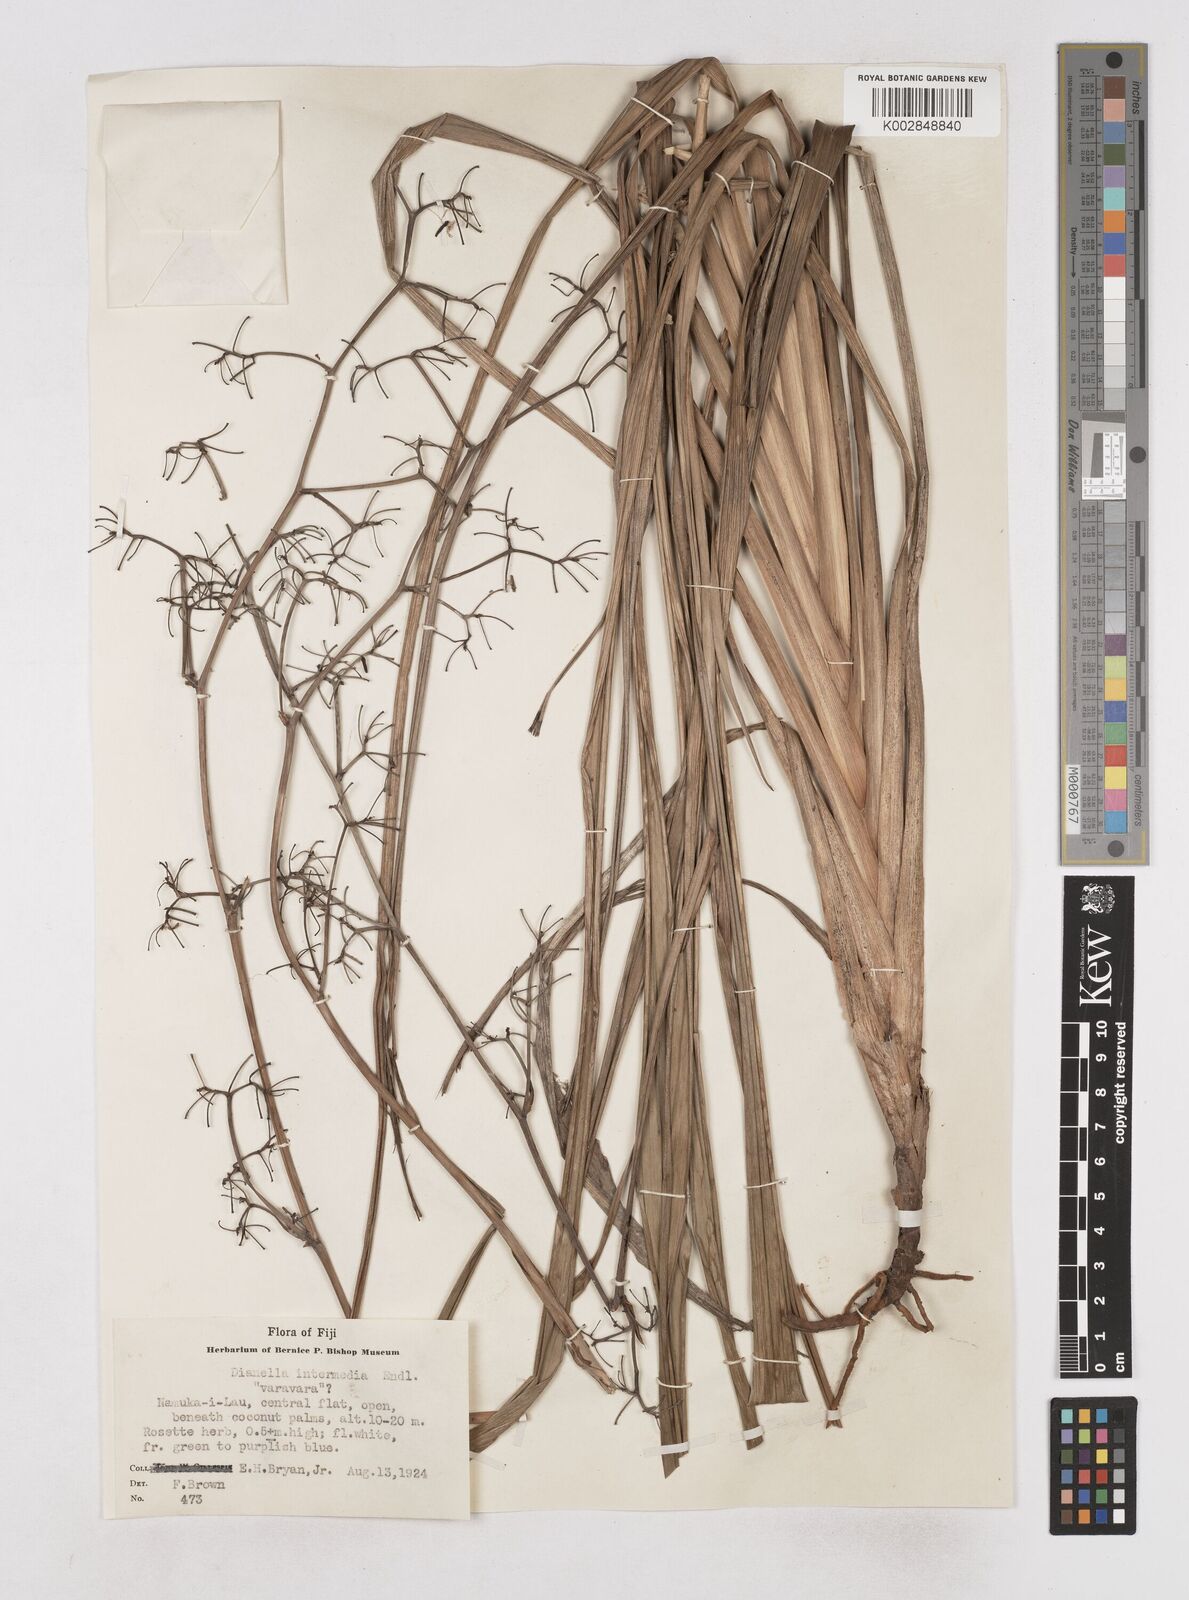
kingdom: Plantae
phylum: Tracheophyta
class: Liliopsida
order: Asparagales
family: Asphodelaceae
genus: Dianella
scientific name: Dianella intermedia
